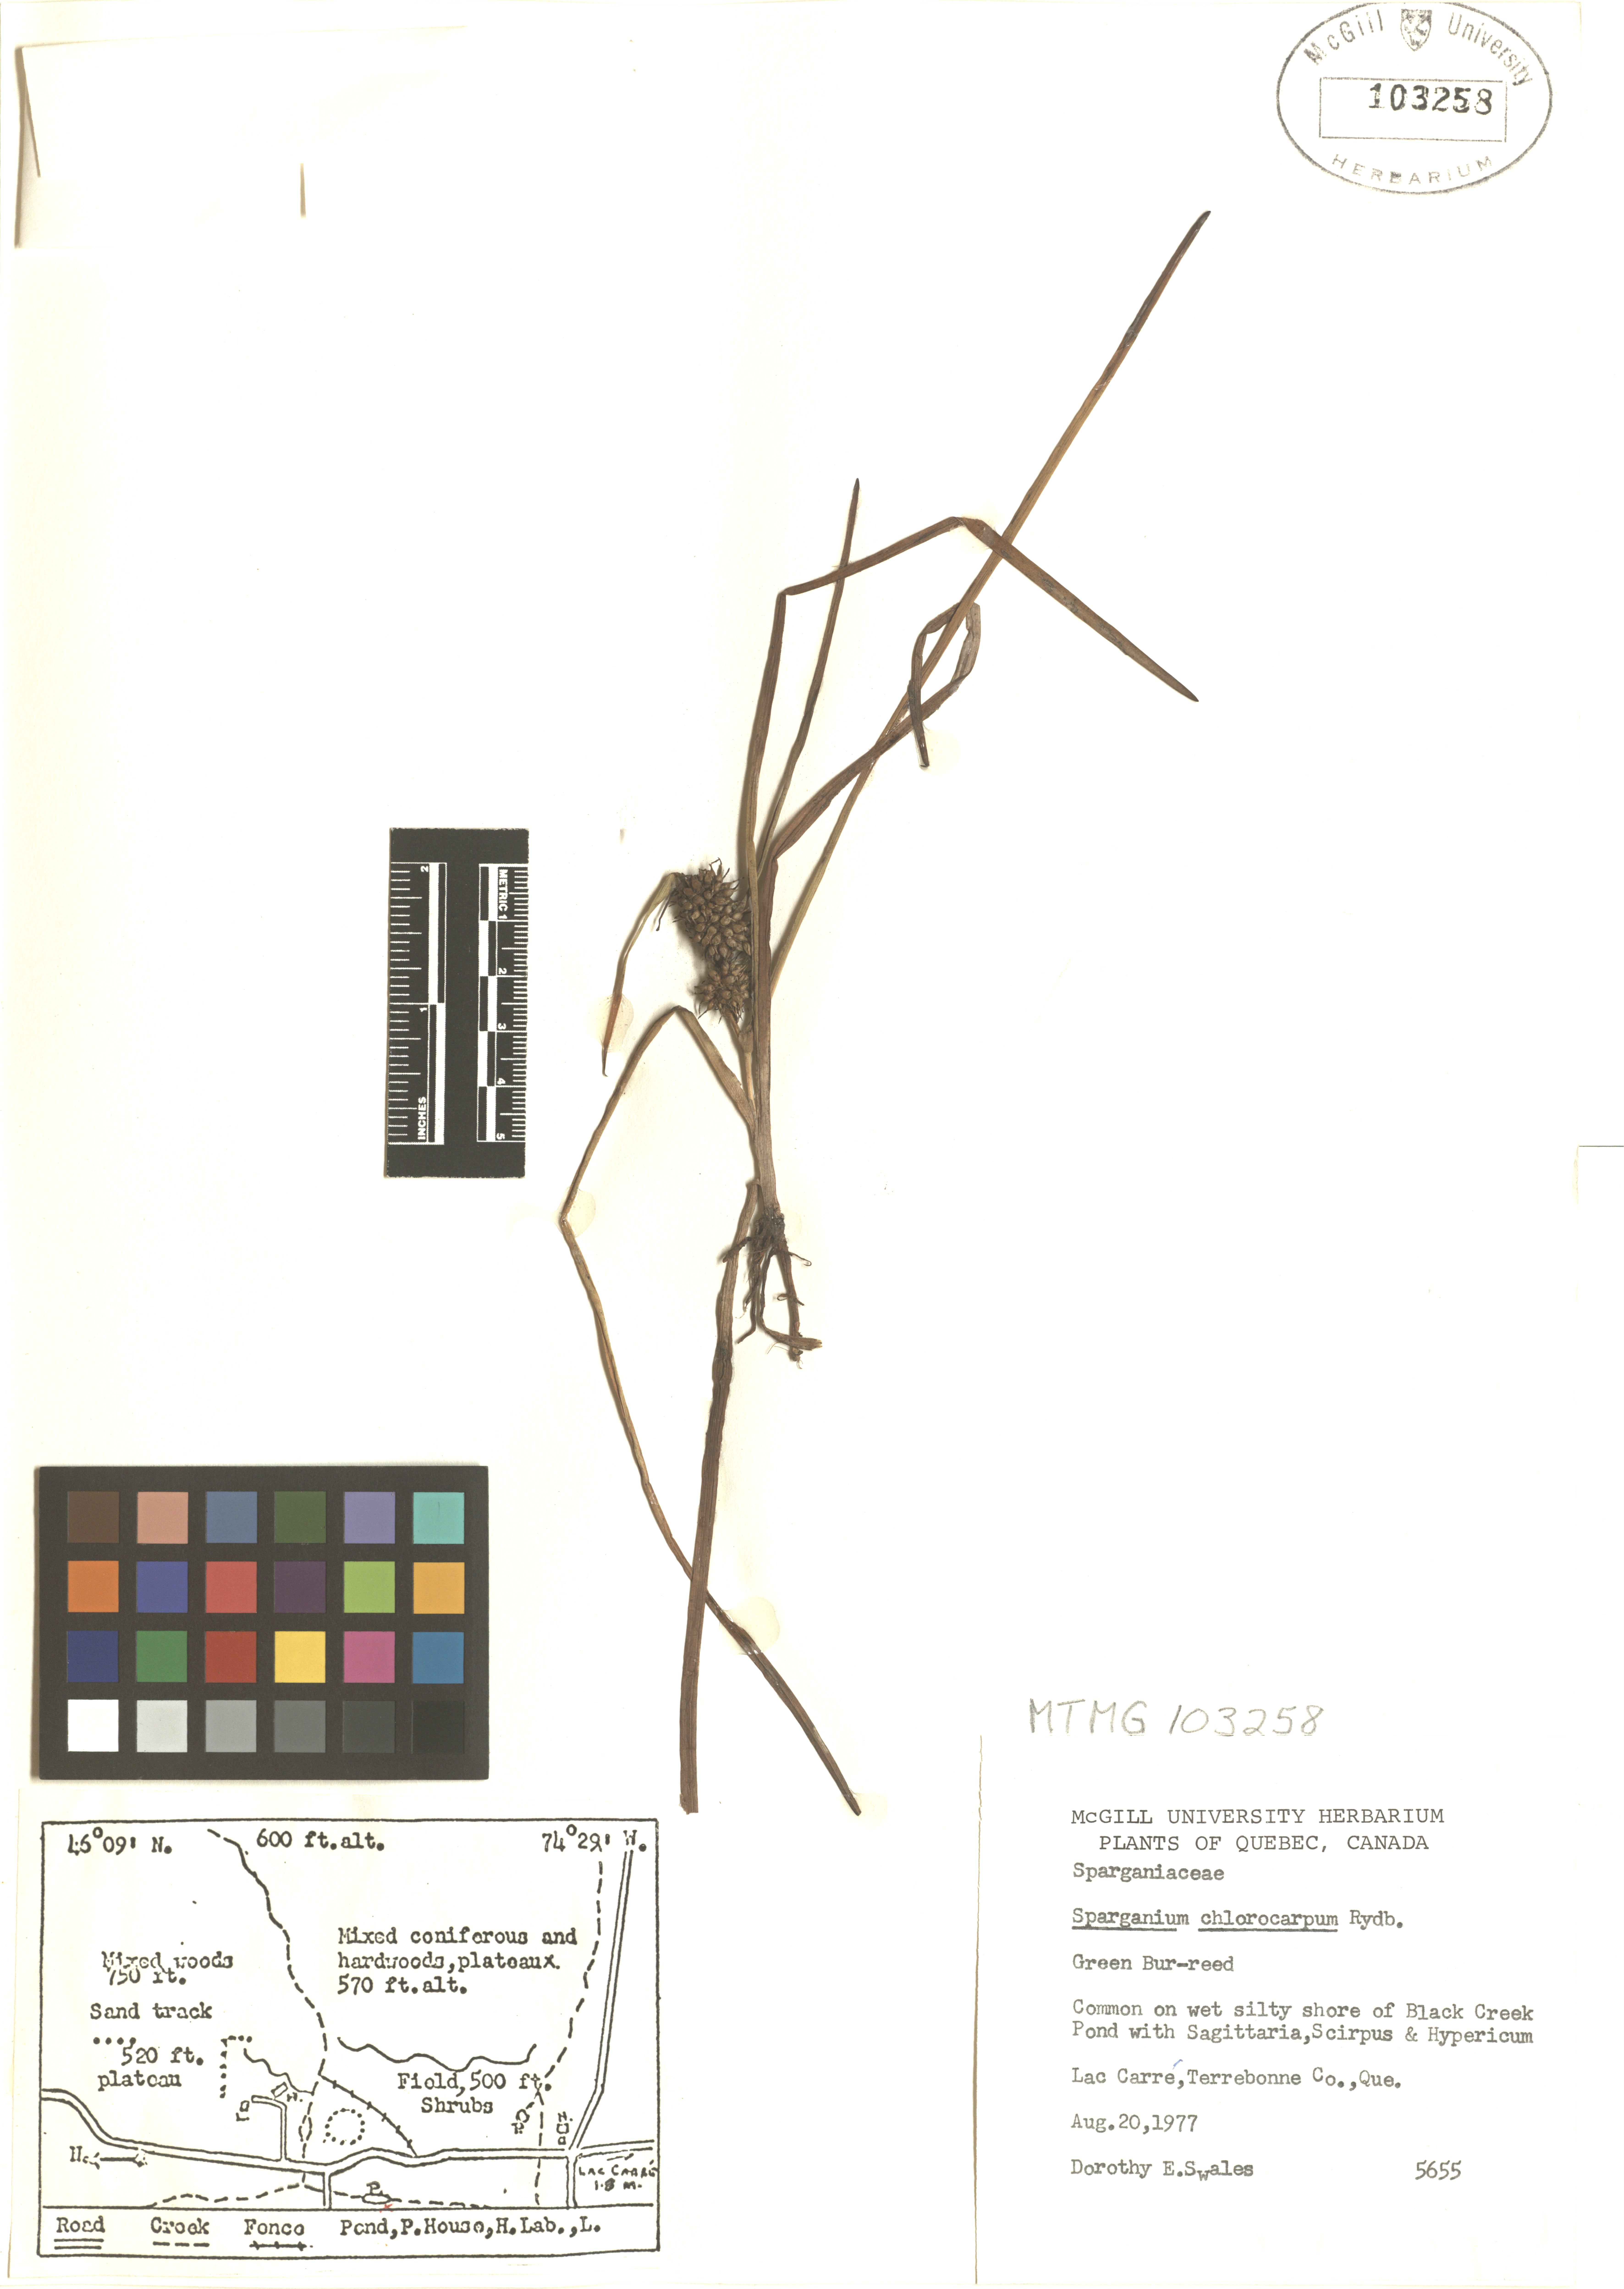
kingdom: Plantae
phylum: Tracheophyta
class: Liliopsida
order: Poales
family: Typhaceae
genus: Sparganium
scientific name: Sparganium emersum
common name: Unbranched bur-reed
